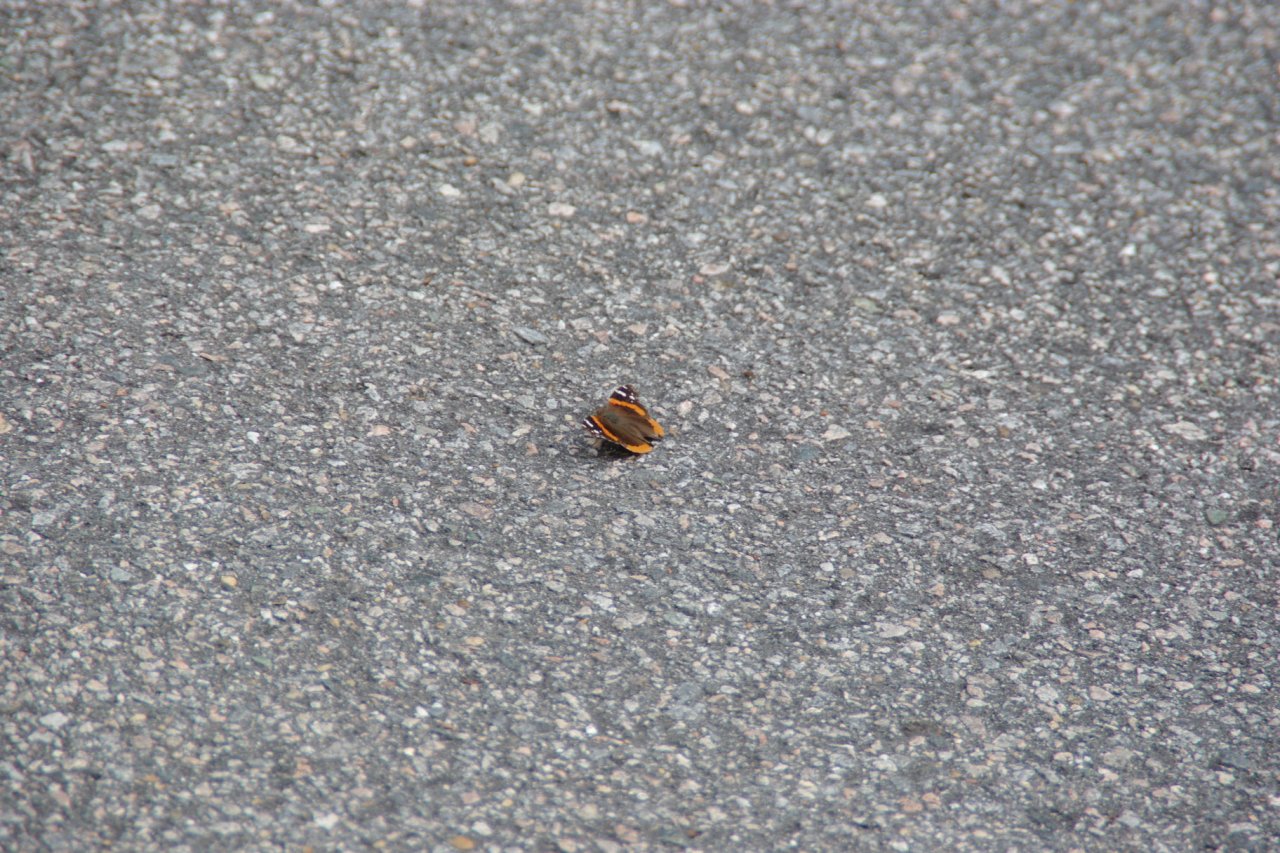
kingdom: Animalia
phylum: Arthropoda
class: Insecta
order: Lepidoptera
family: Nymphalidae
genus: Vanessa
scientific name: Vanessa atalanta
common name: Red Admiral
